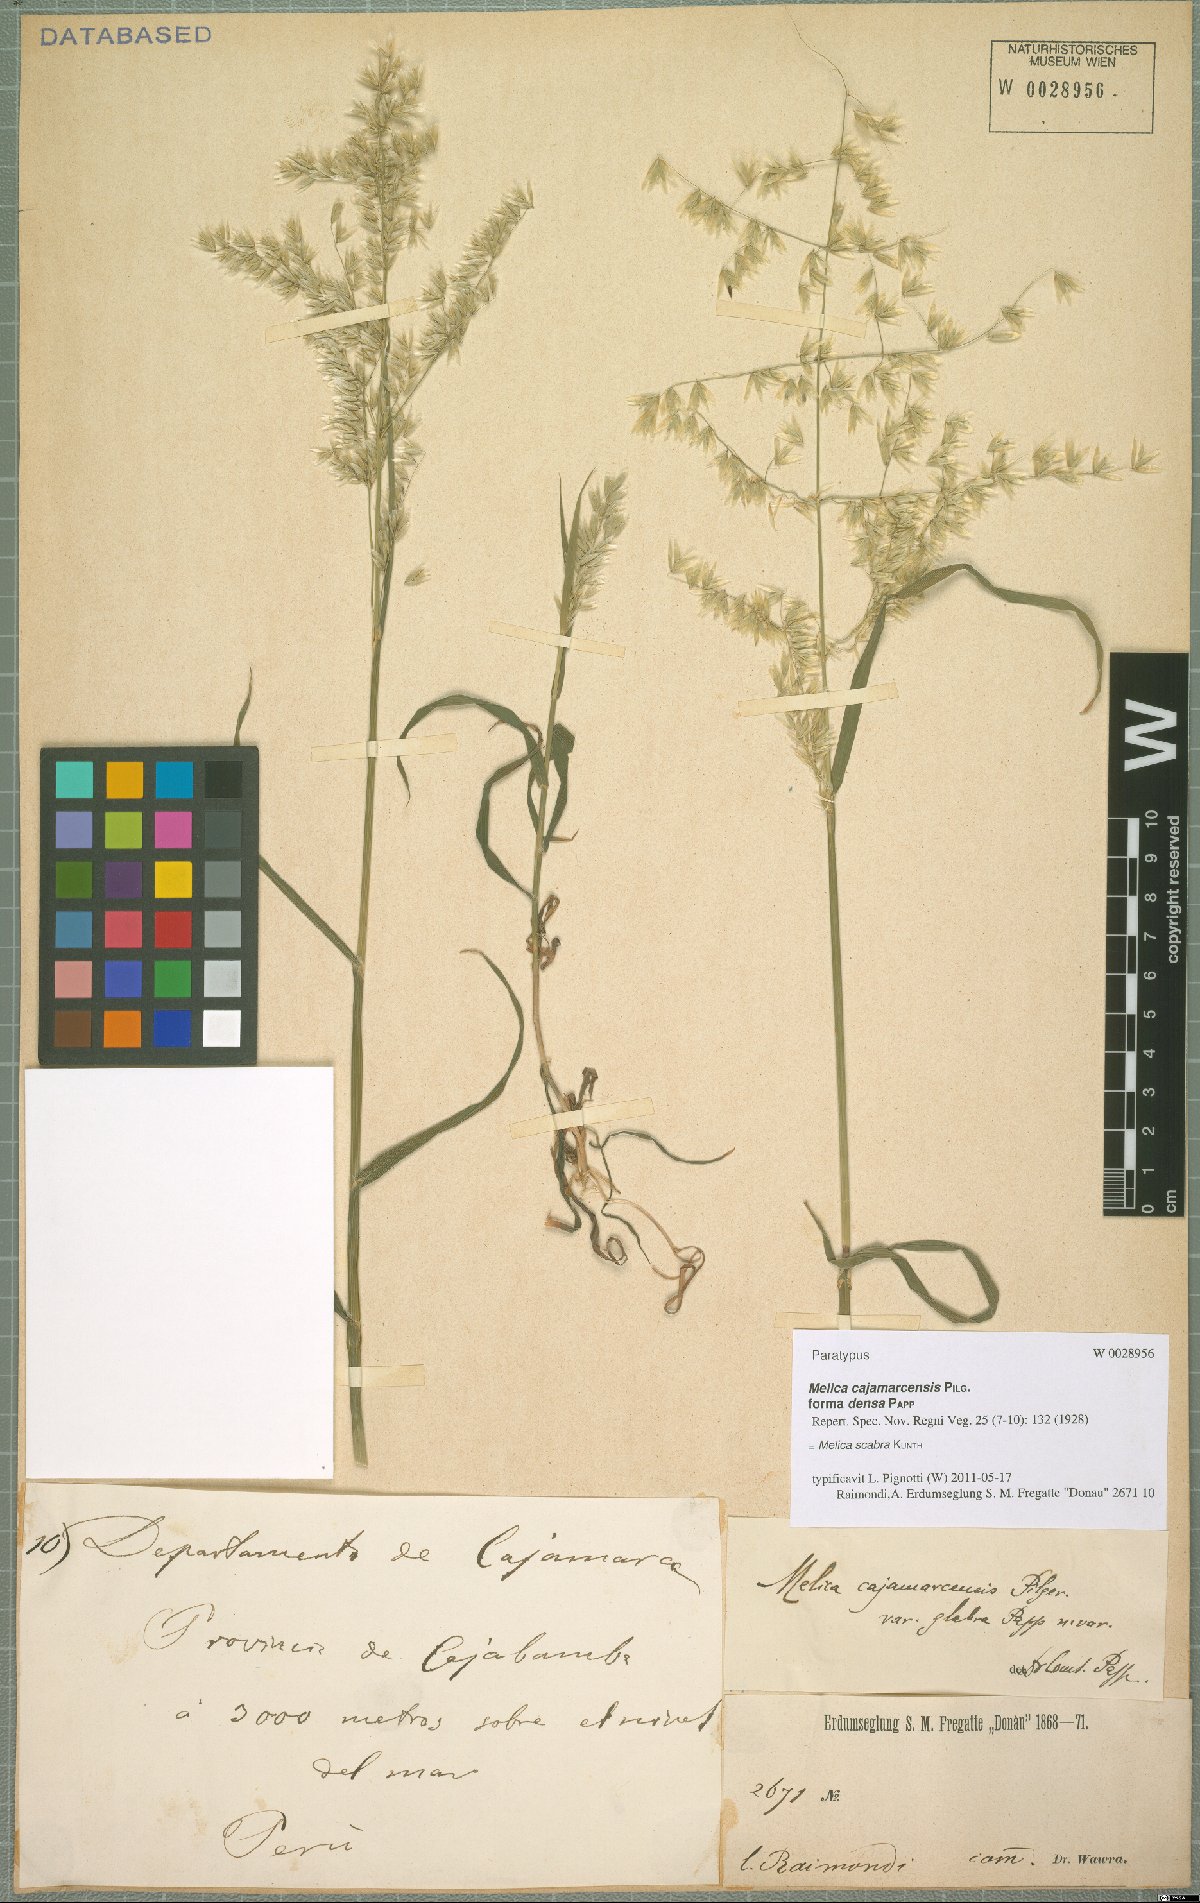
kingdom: Plantae
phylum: Tracheophyta
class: Liliopsida
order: Poales
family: Poaceae
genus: Melica
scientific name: Melica scabra
